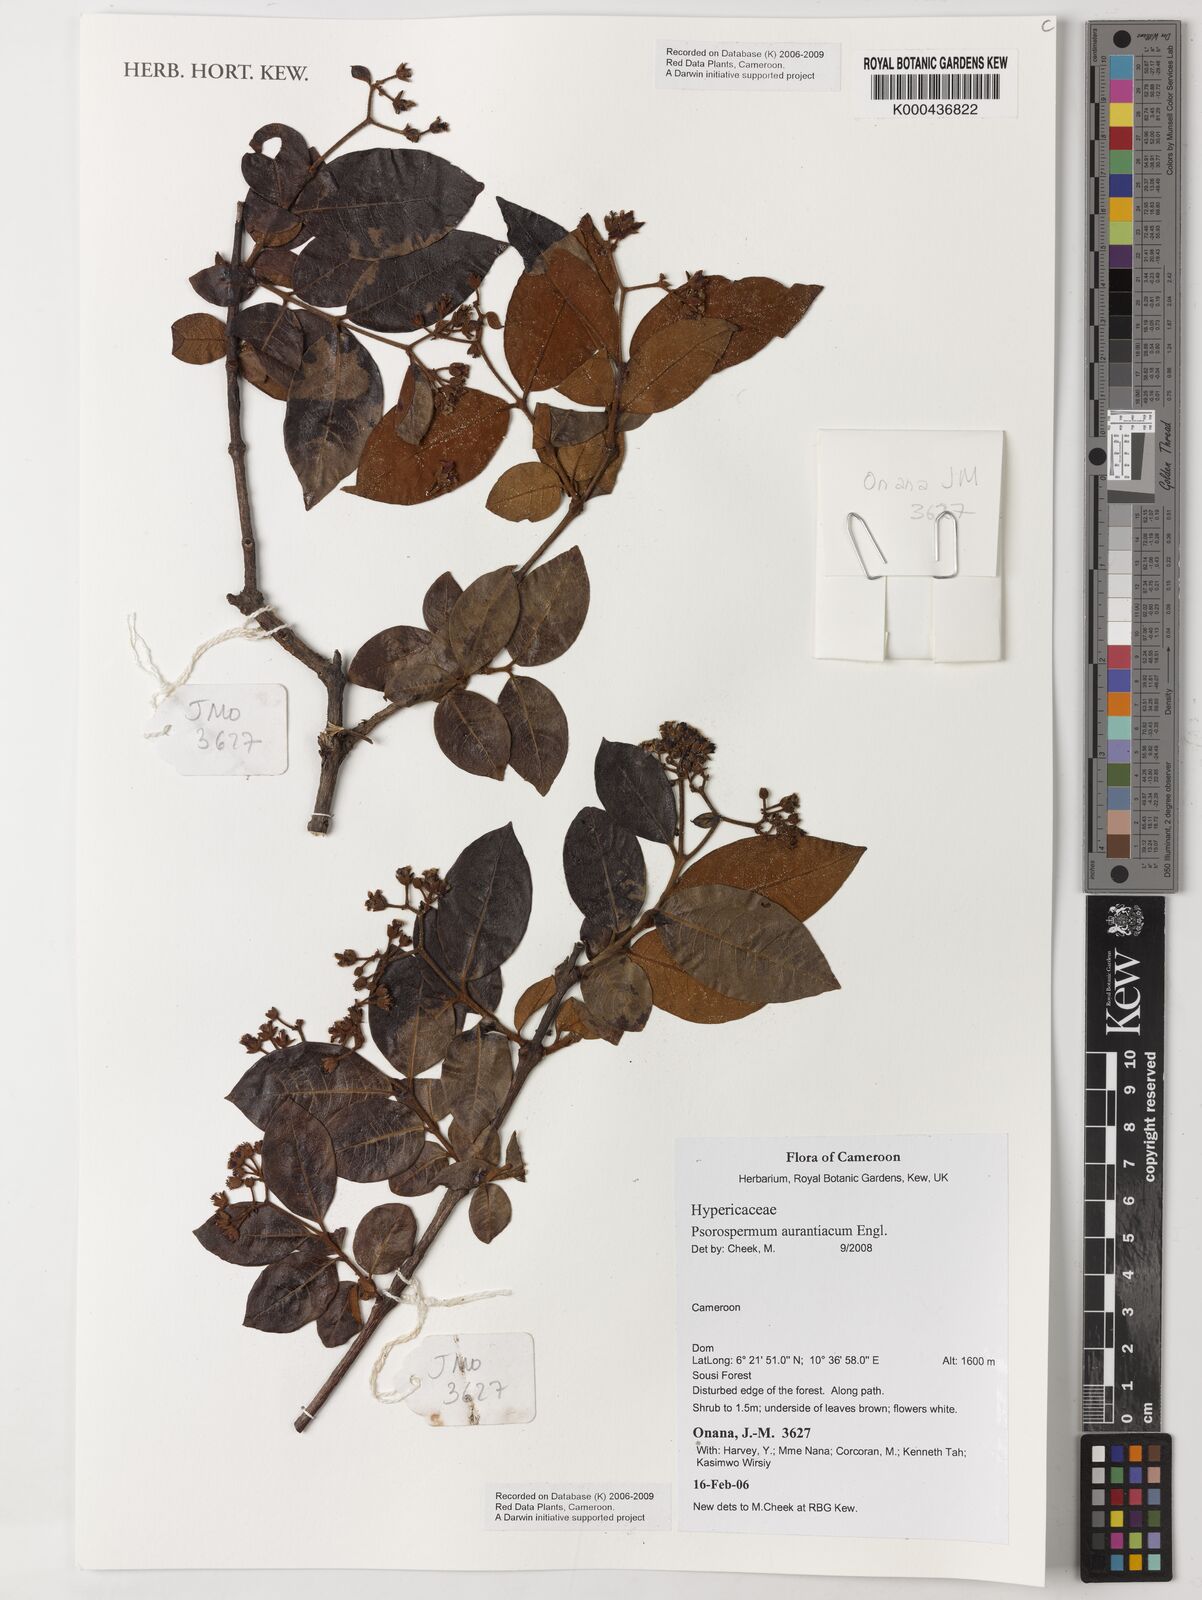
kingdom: Plantae
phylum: Tracheophyta
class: Magnoliopsida
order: Malpighiales
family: Hypericaceae
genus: Psorospermum
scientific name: Psorospermum aurantiacum
